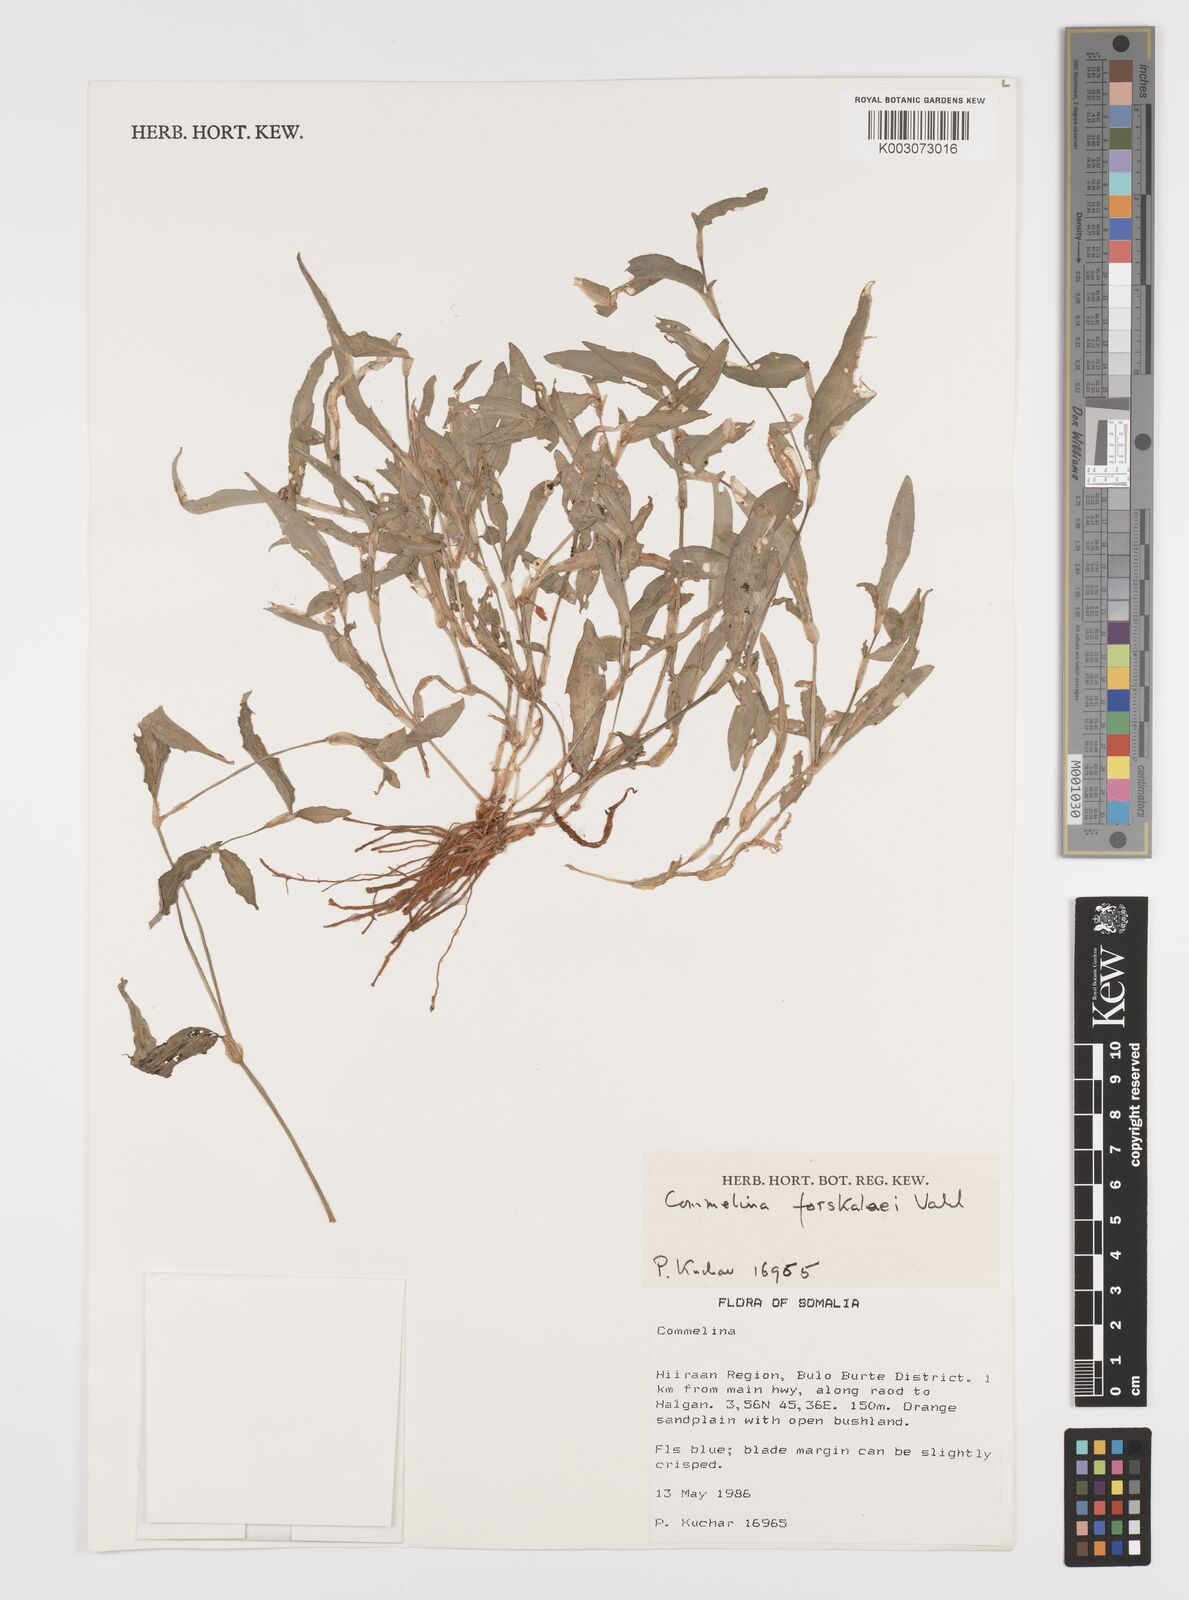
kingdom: Plantae
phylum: Tracheophyta
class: Liliopsida
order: Commelinales
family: Commelinaceae
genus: Commelina
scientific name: Commelina forskaolii
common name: Rat's ear
